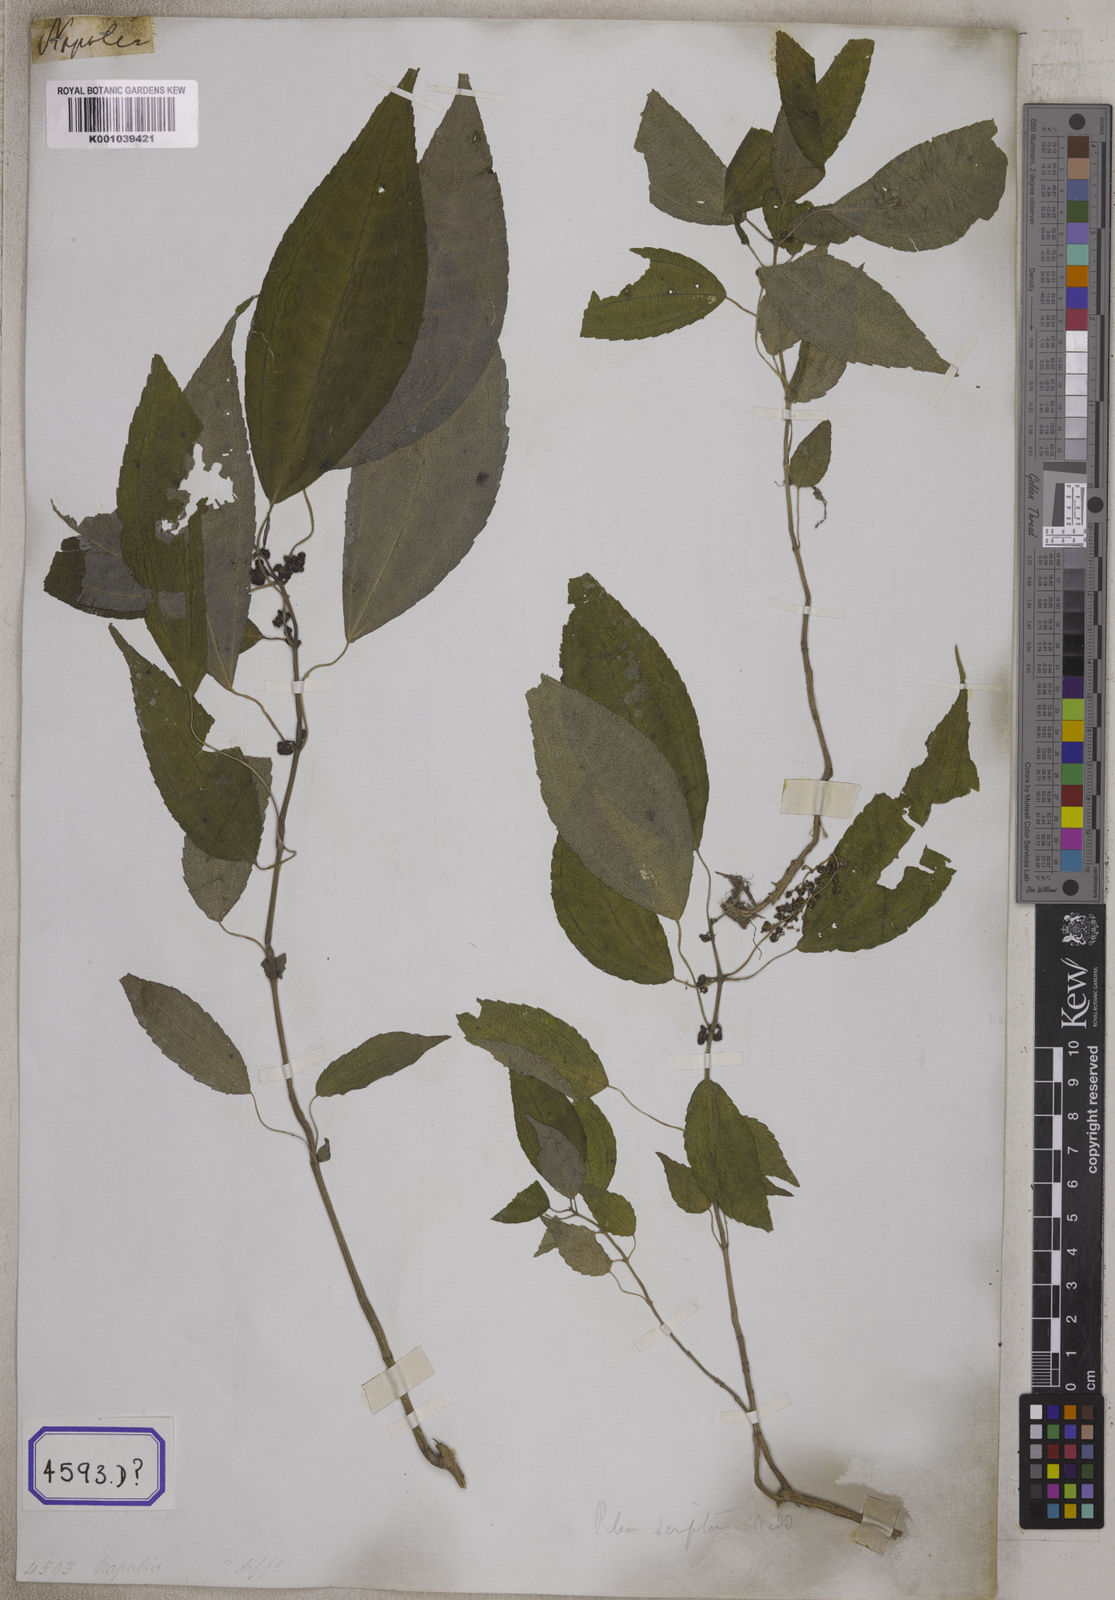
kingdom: Plantae
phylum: Tracheophyta
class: Magnoliopsida
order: Rosales
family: Urticaceae
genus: Urtica
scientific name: Urtica
